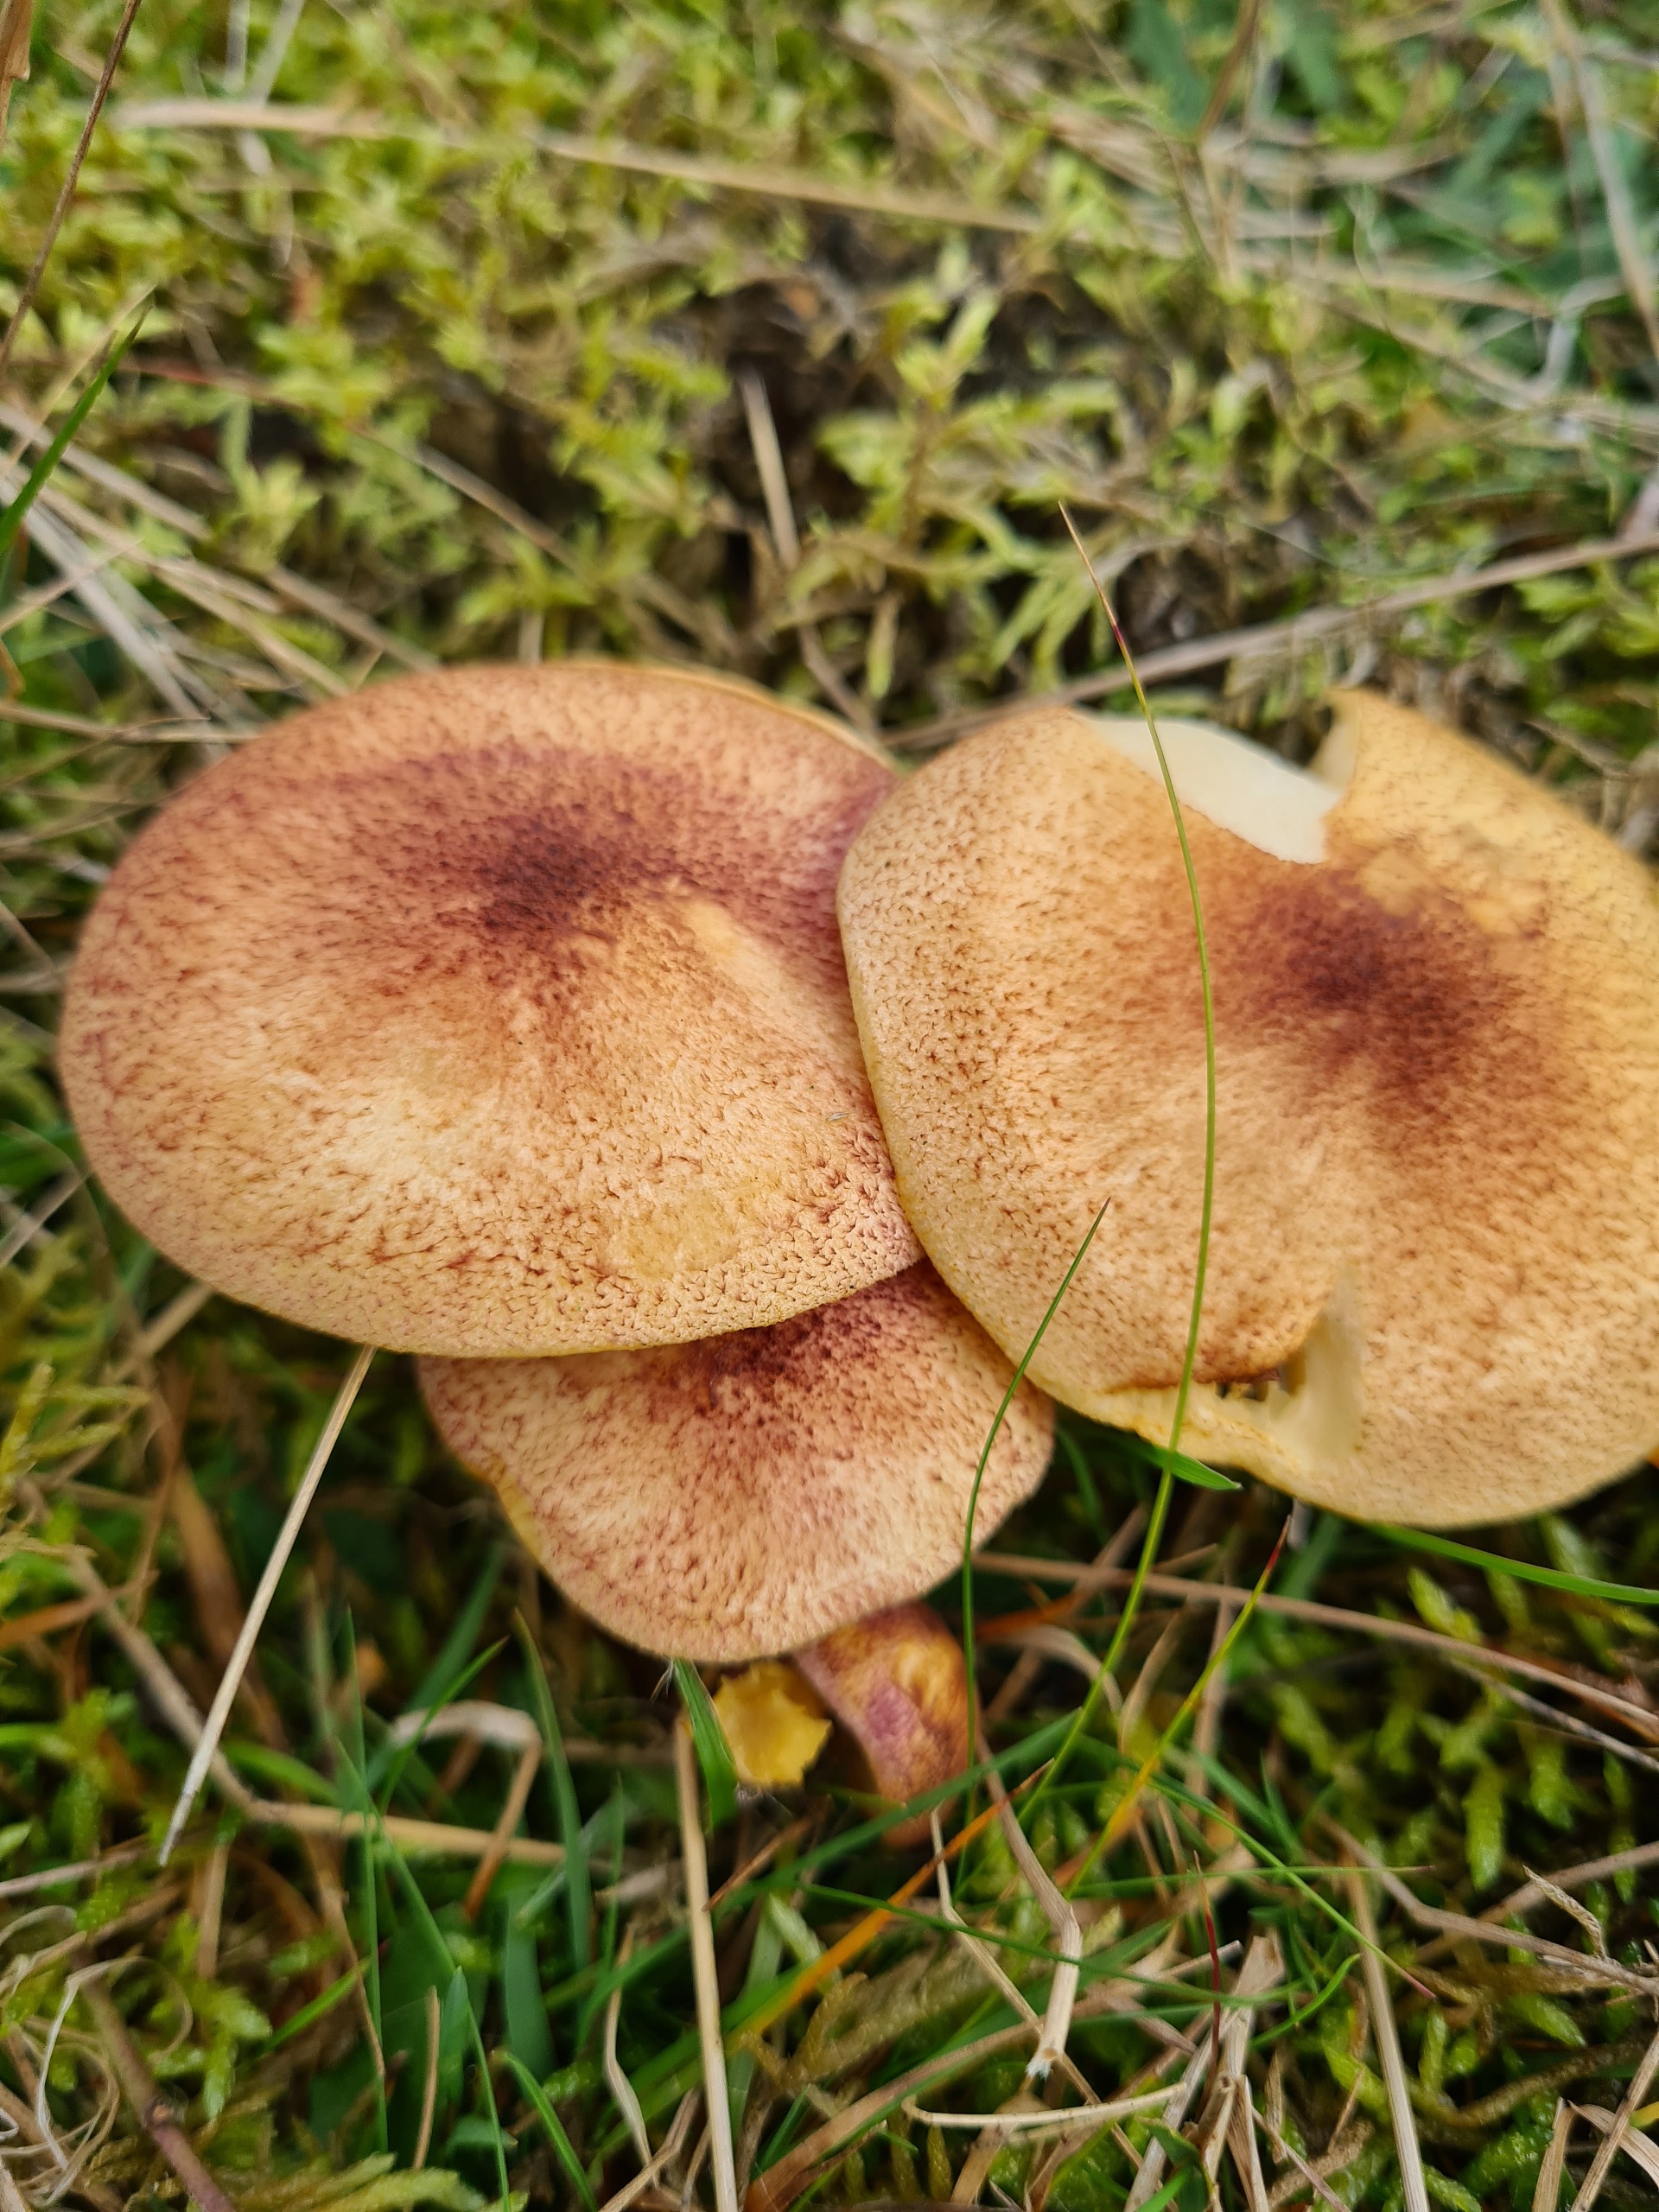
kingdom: Fungi
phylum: Basidiomycota
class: Agaricomycetes
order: Agaricales
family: Tricholomataceae
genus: Tricholomopsis
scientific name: Tricholomopsis rutilans
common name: Purpur-væbnerhat
